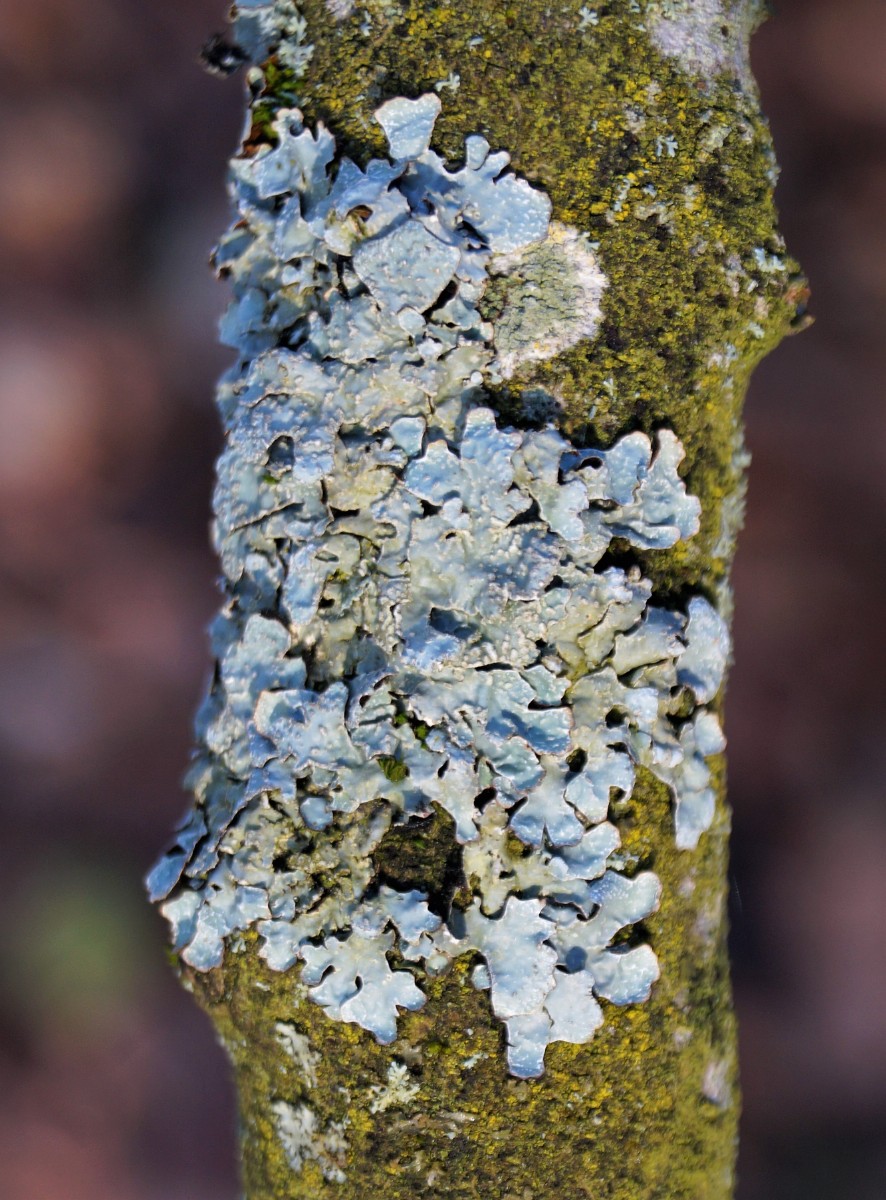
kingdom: Fungi
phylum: Ascomycota
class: Lecanoromycetes
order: Lecanorales
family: Parmeliaceae
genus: Parmelia
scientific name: Parmelia sulcata
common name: rynket skållav
